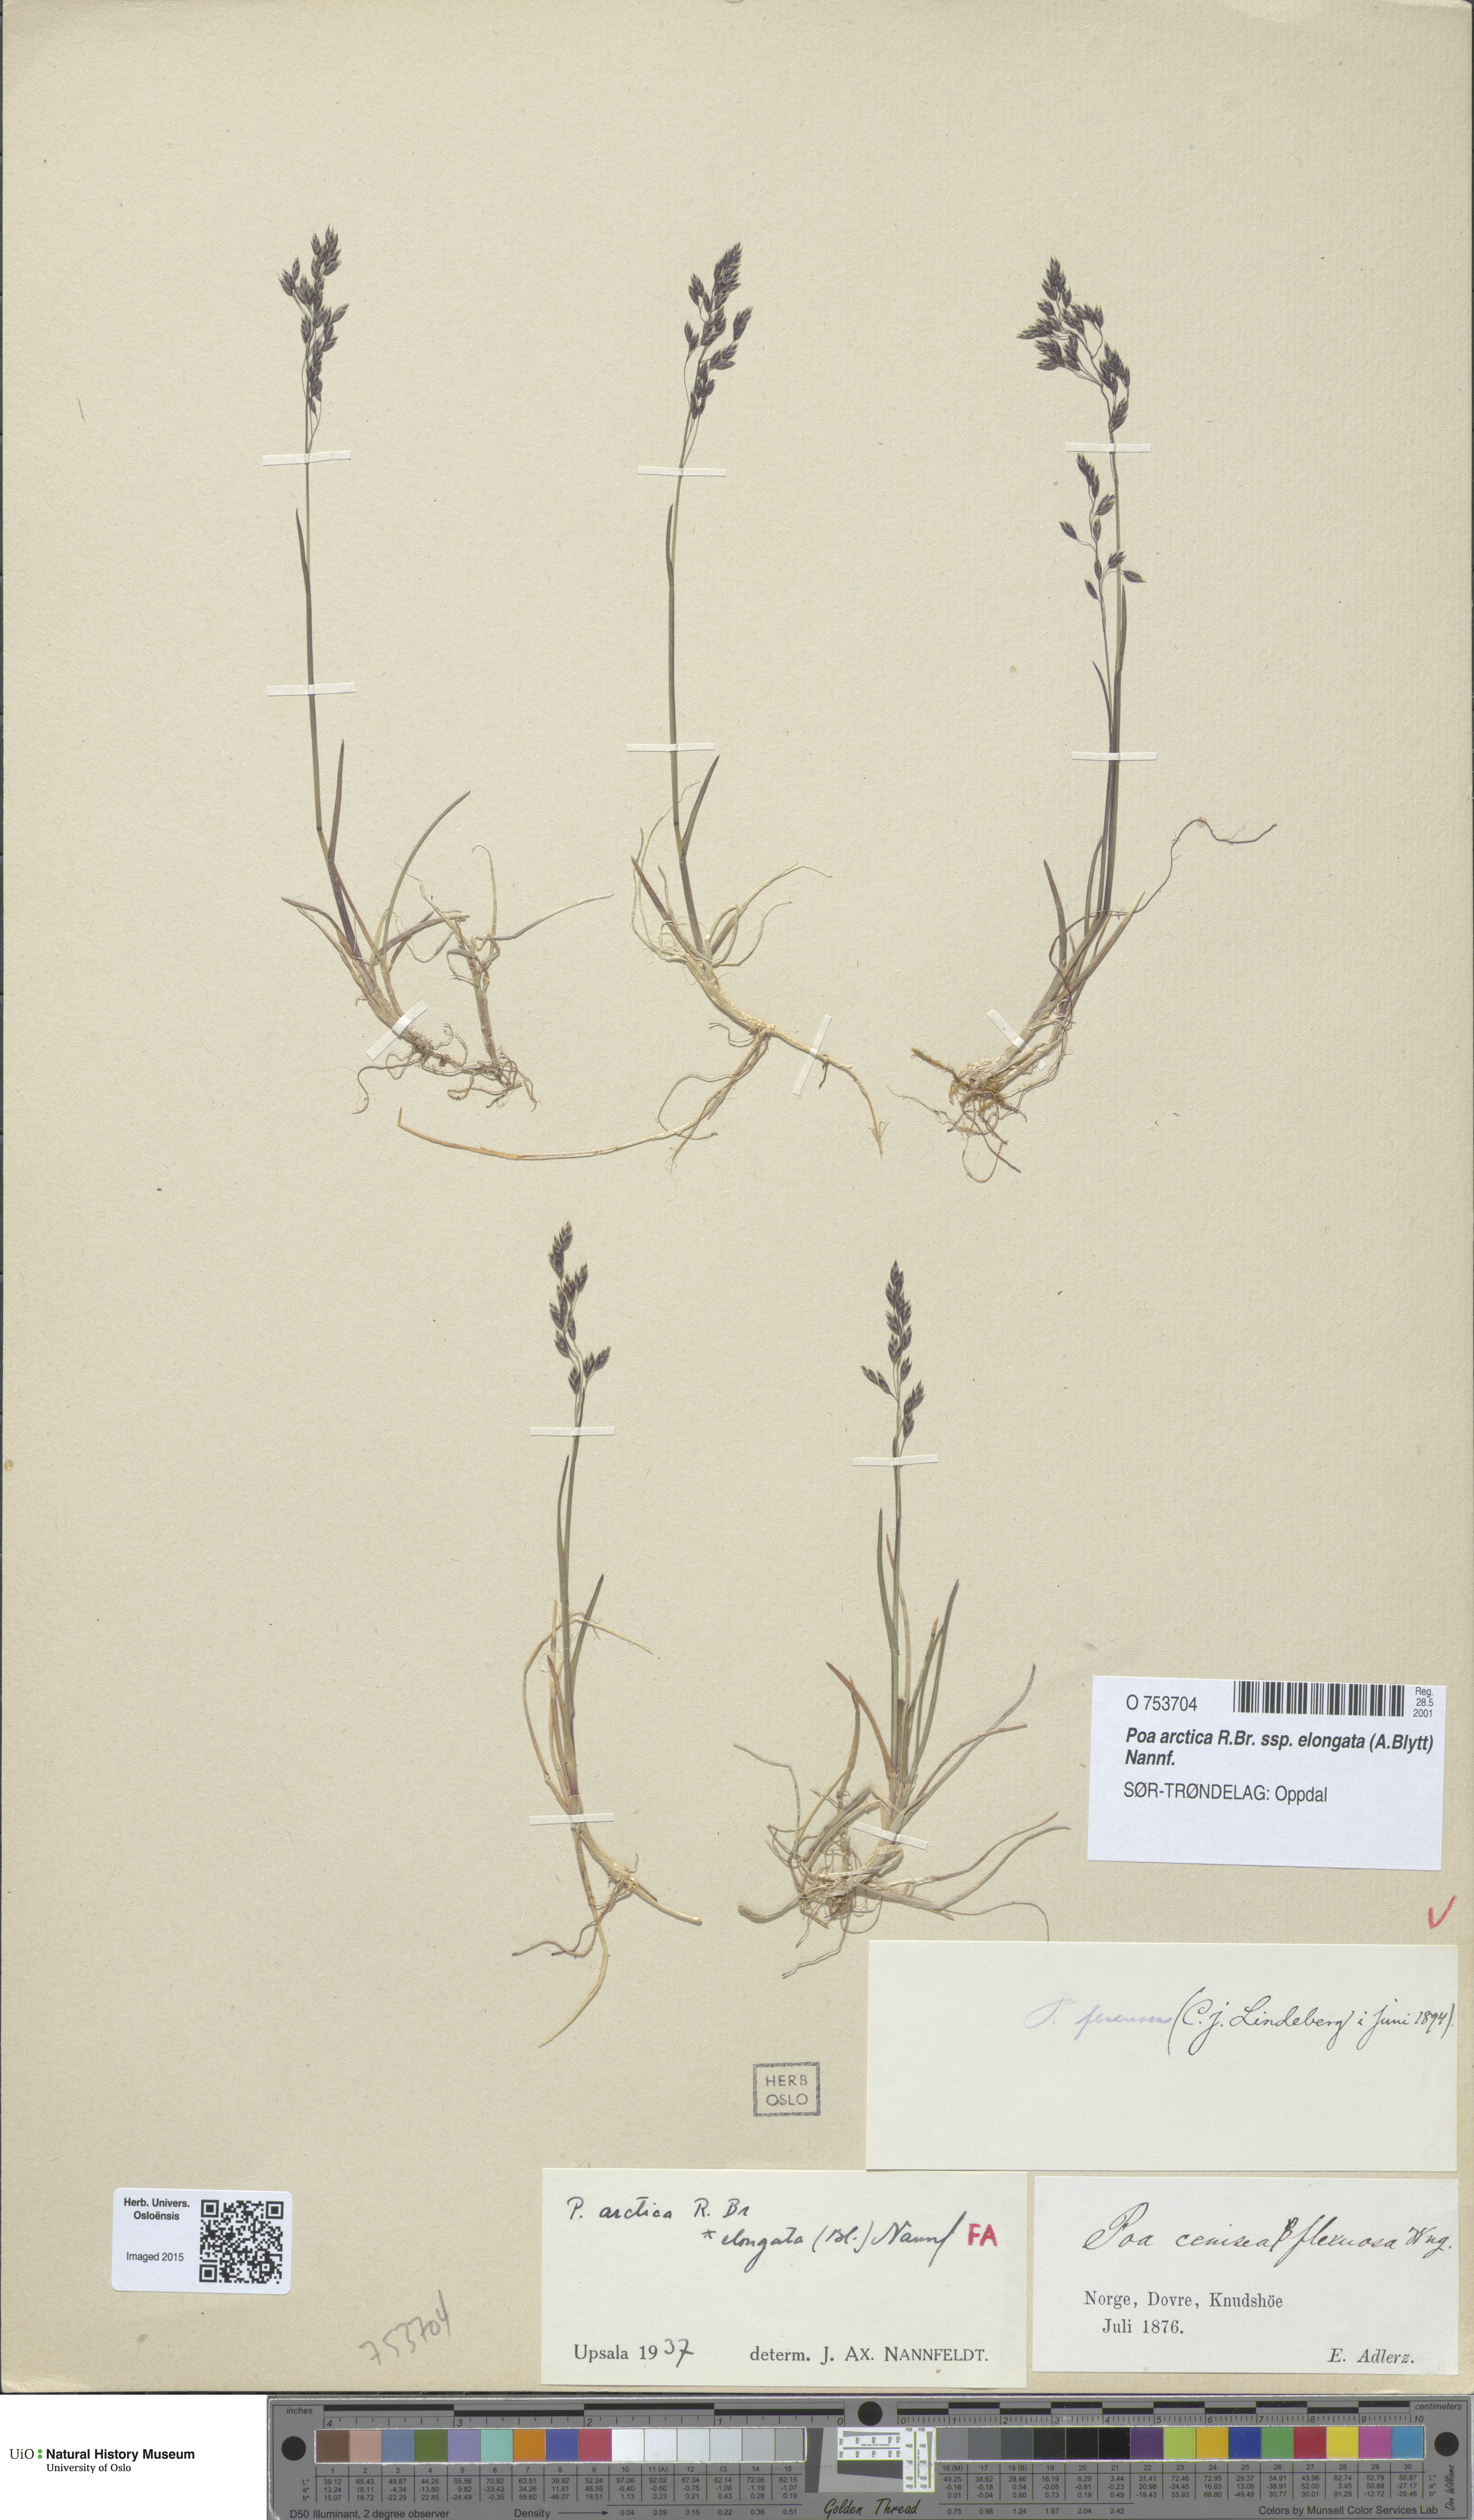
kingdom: Plantae
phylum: Tracheophyta
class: Liliopsida
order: Poales
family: Poaceae
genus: Poa
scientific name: Poa arctica
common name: Arctic bluegrass
